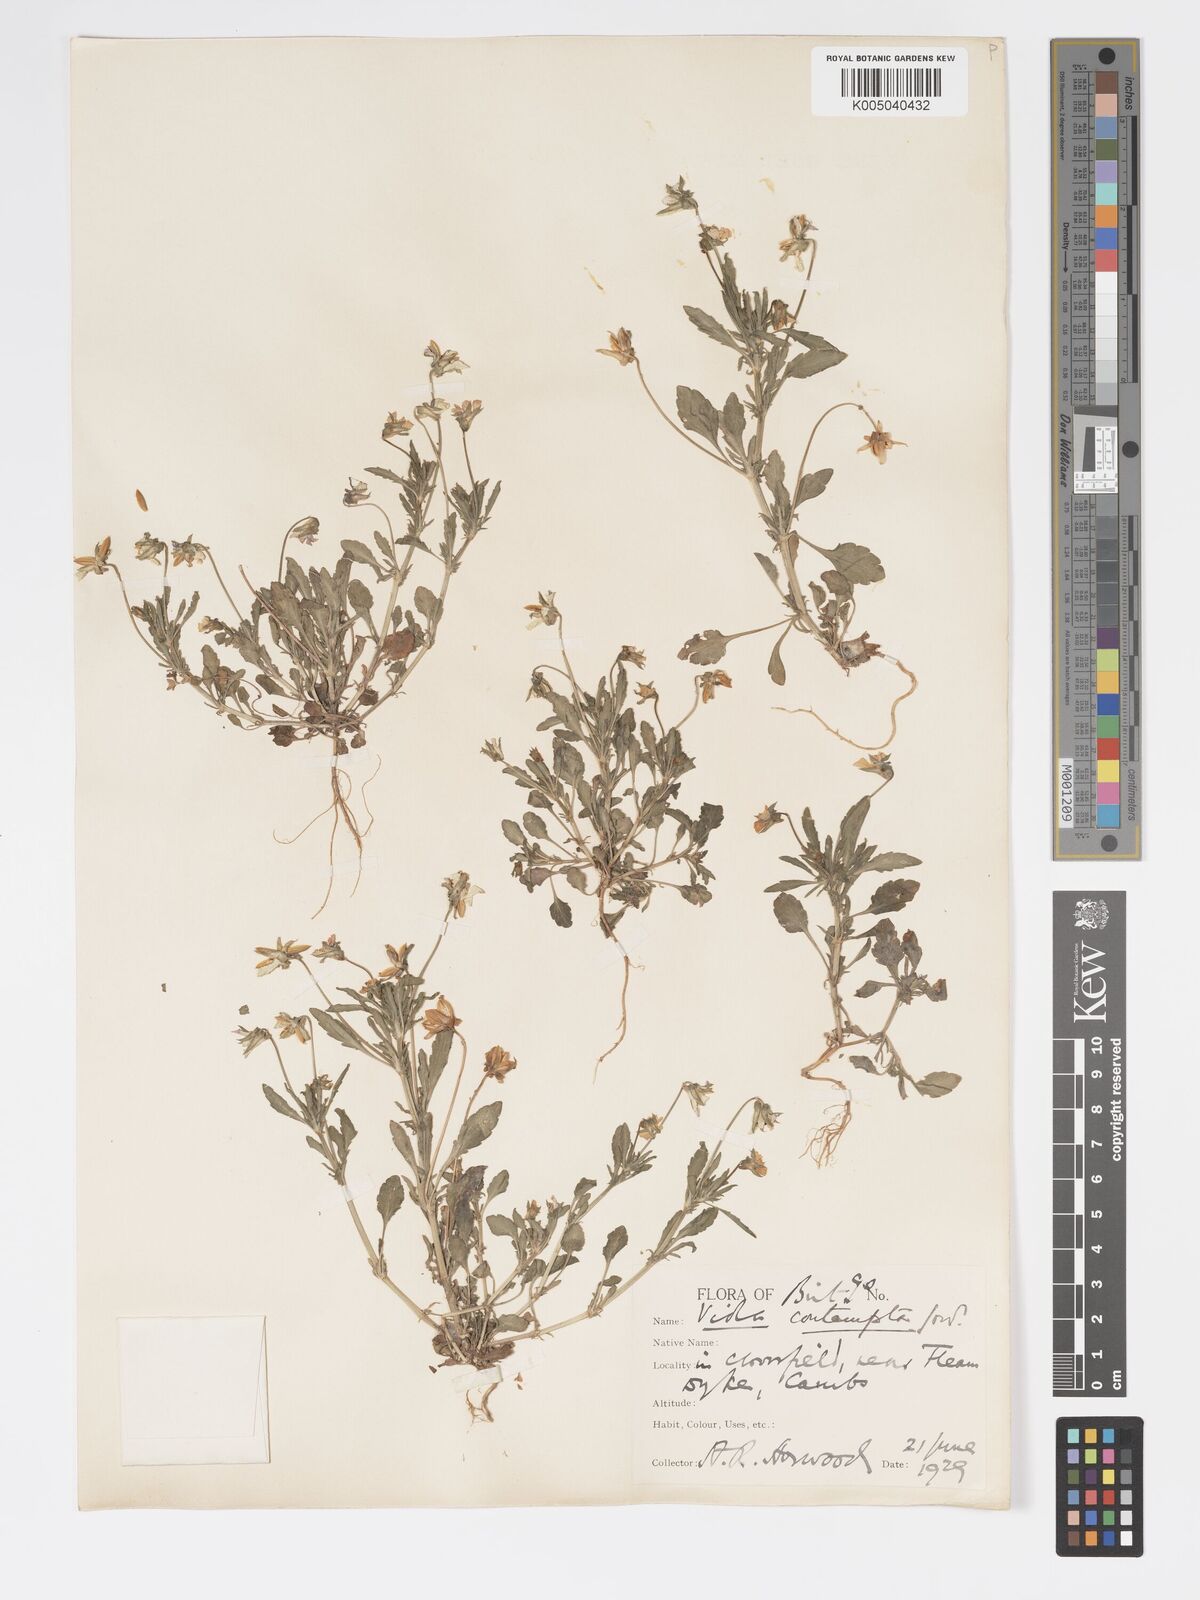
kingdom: Plantae
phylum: Tracheophyta
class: Magnoliopsida
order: Malpighiales
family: Violaceae
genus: Viola
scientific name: Viola arvensis
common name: Field pansy
